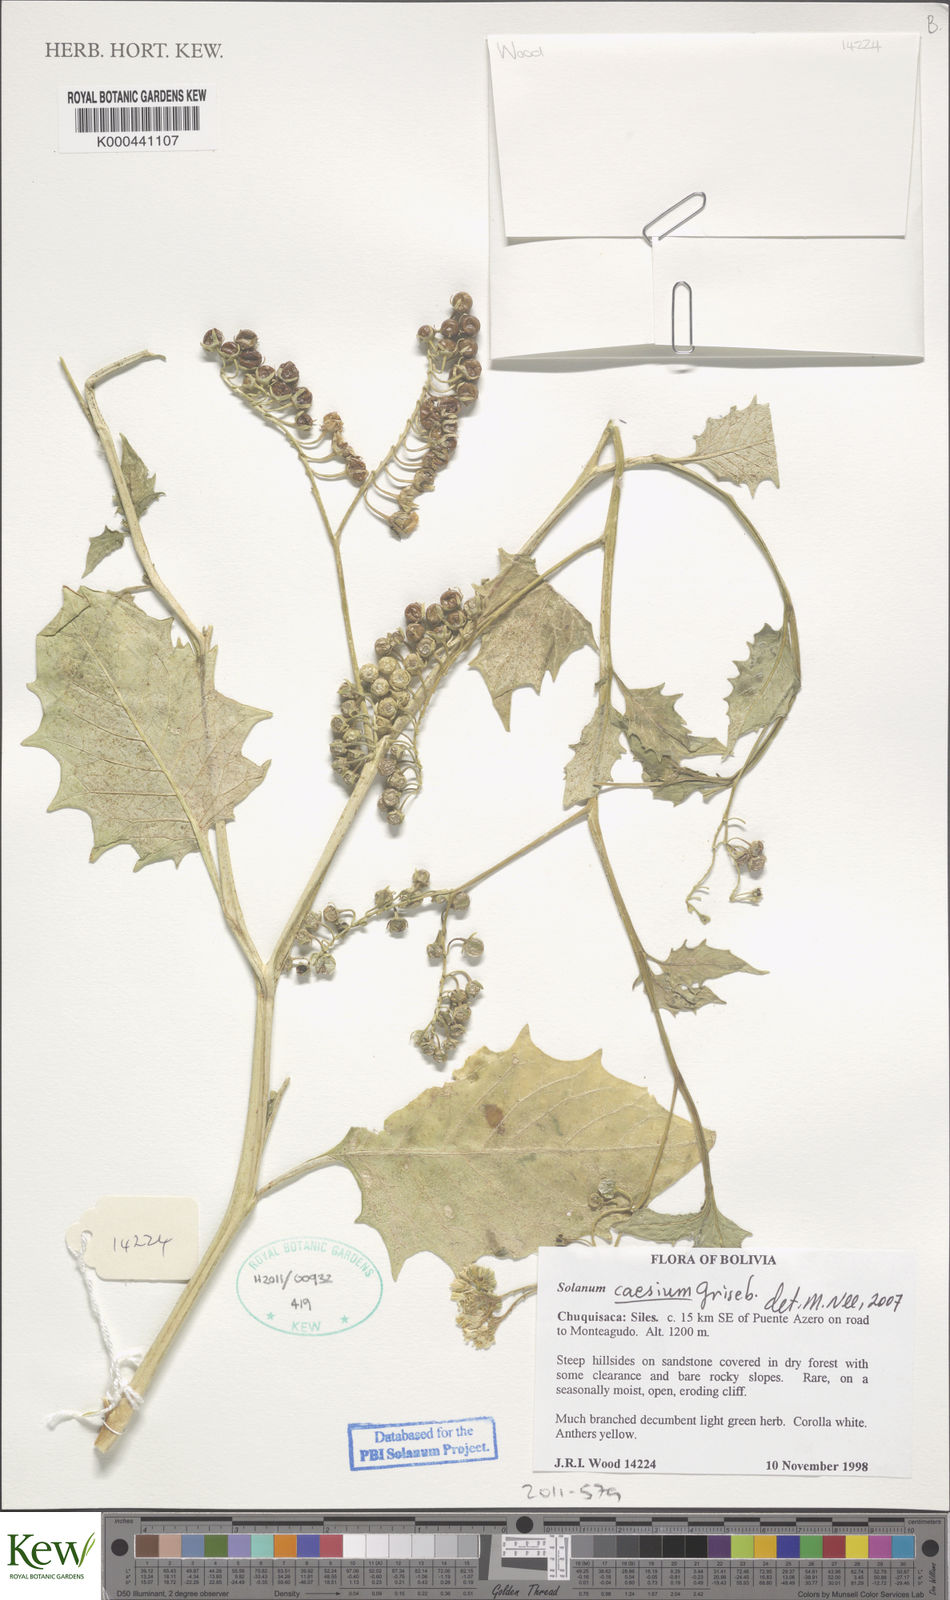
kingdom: Plantae
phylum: Tracheophyta
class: Magnoliopsida
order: Solanales
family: Solanaceae
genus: Solanum
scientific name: Solanum caesium
